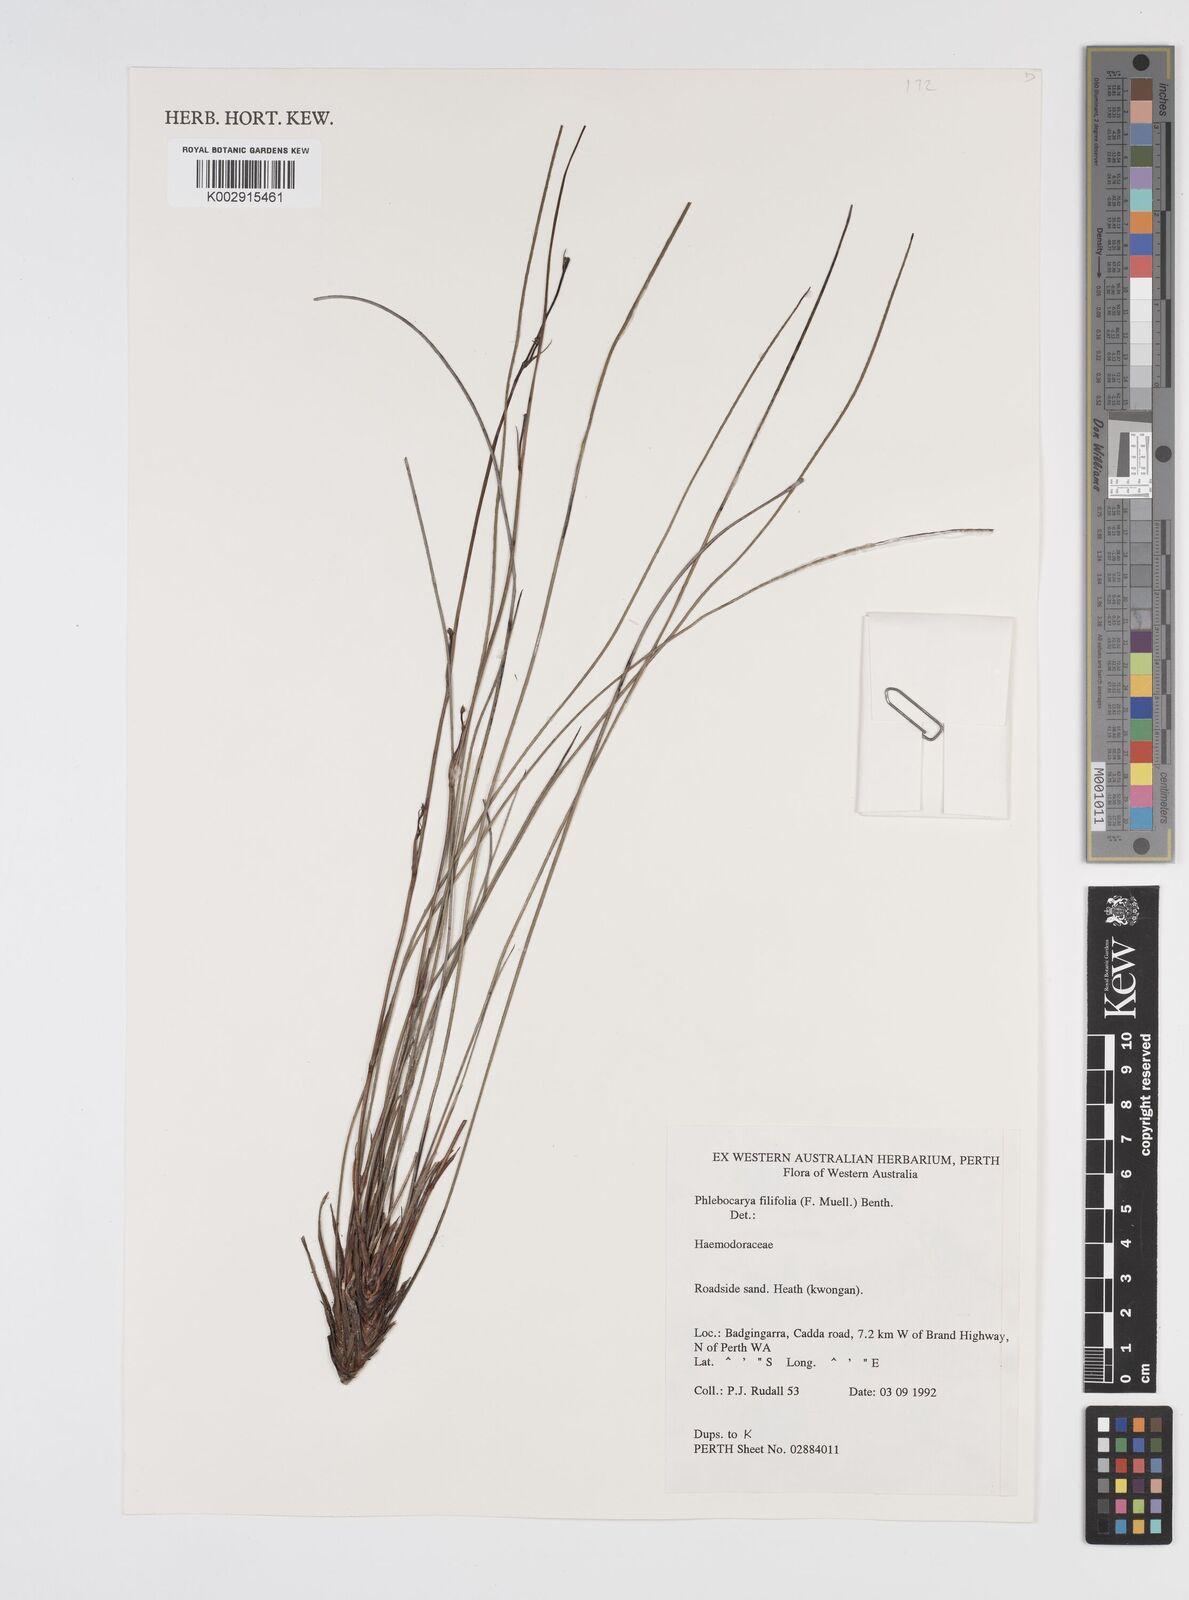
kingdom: Plantae
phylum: Tracheophyta
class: Liliopsida
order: Commelinales
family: Haemodoraceae
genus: Phlebocarya
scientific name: Phlebocarya filifolia
